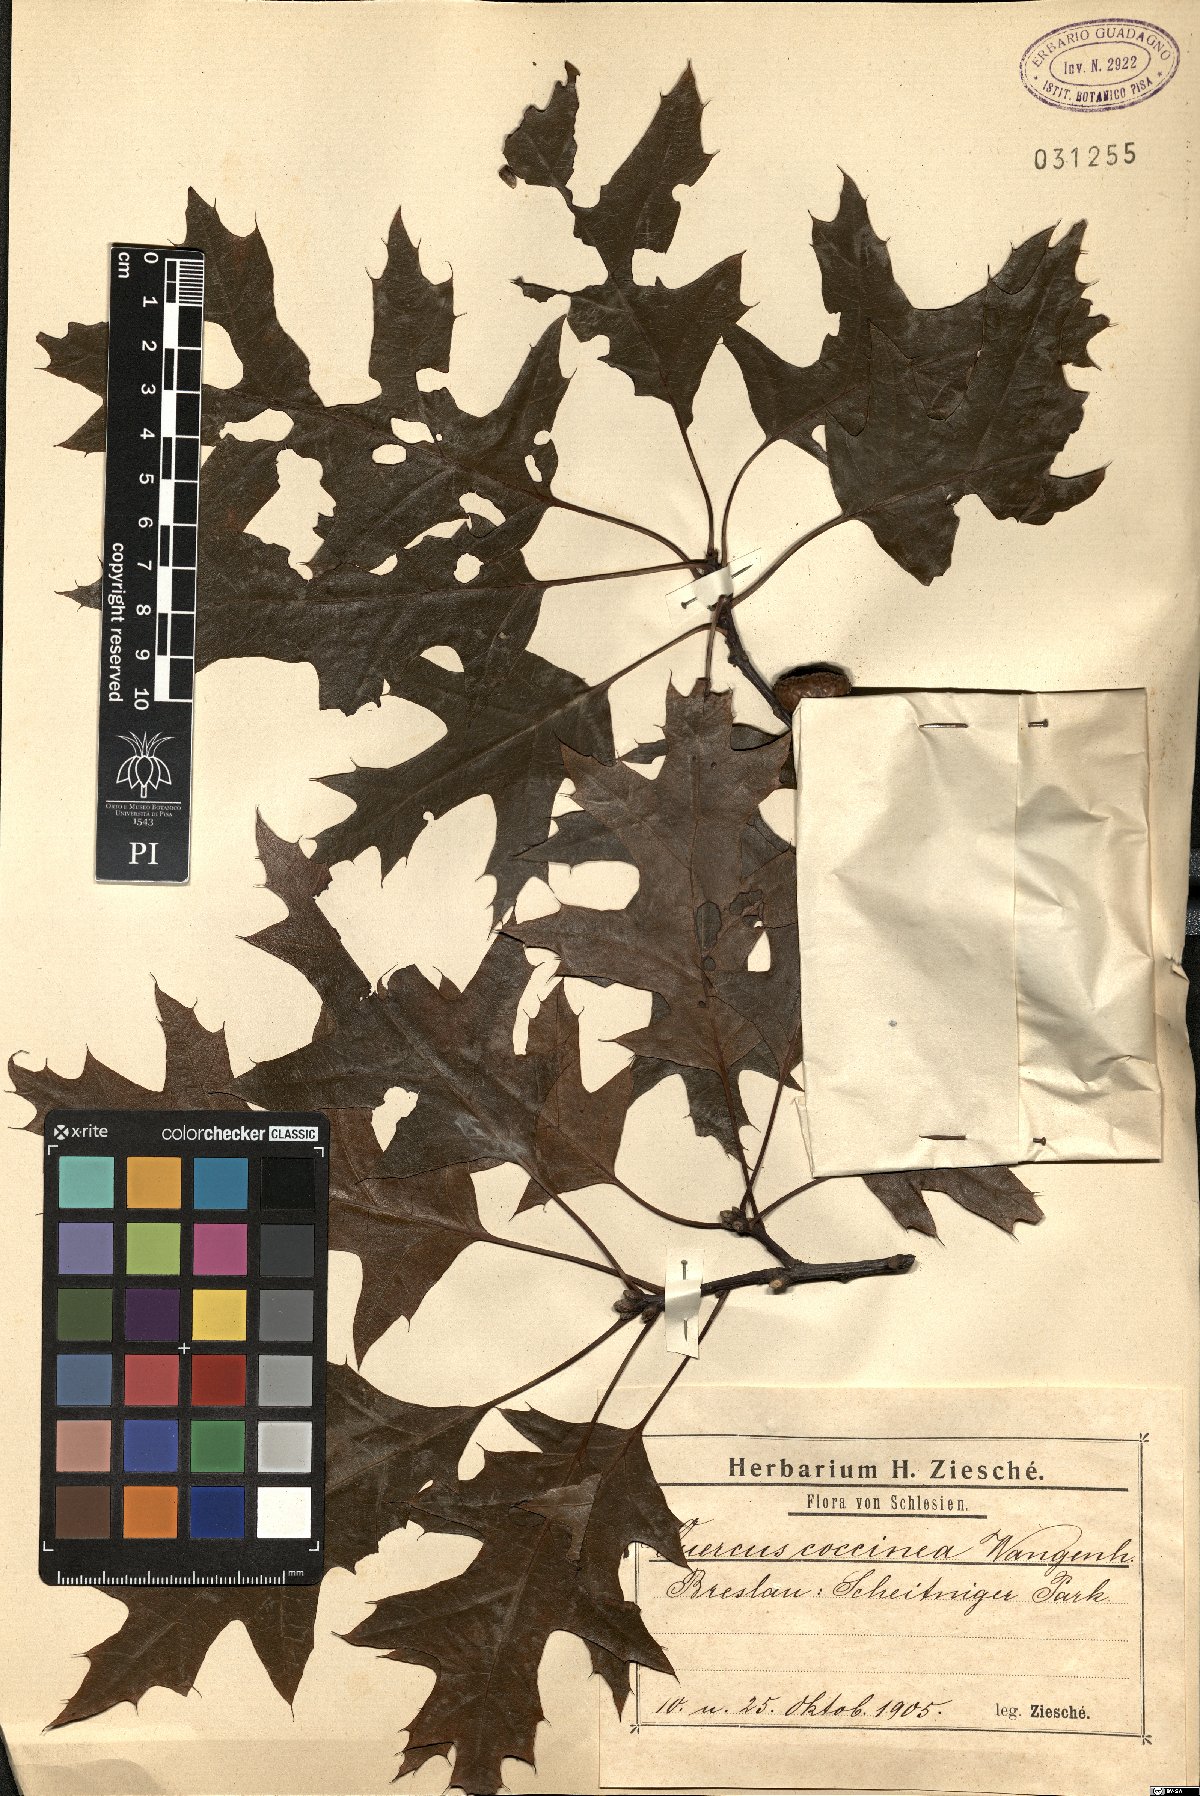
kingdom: Plantae
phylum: Tracheophyta
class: Magnoliopsida
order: Fagales
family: Fagaceae
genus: Quercus
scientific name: Quercus coccinea
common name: Scarlet oak
